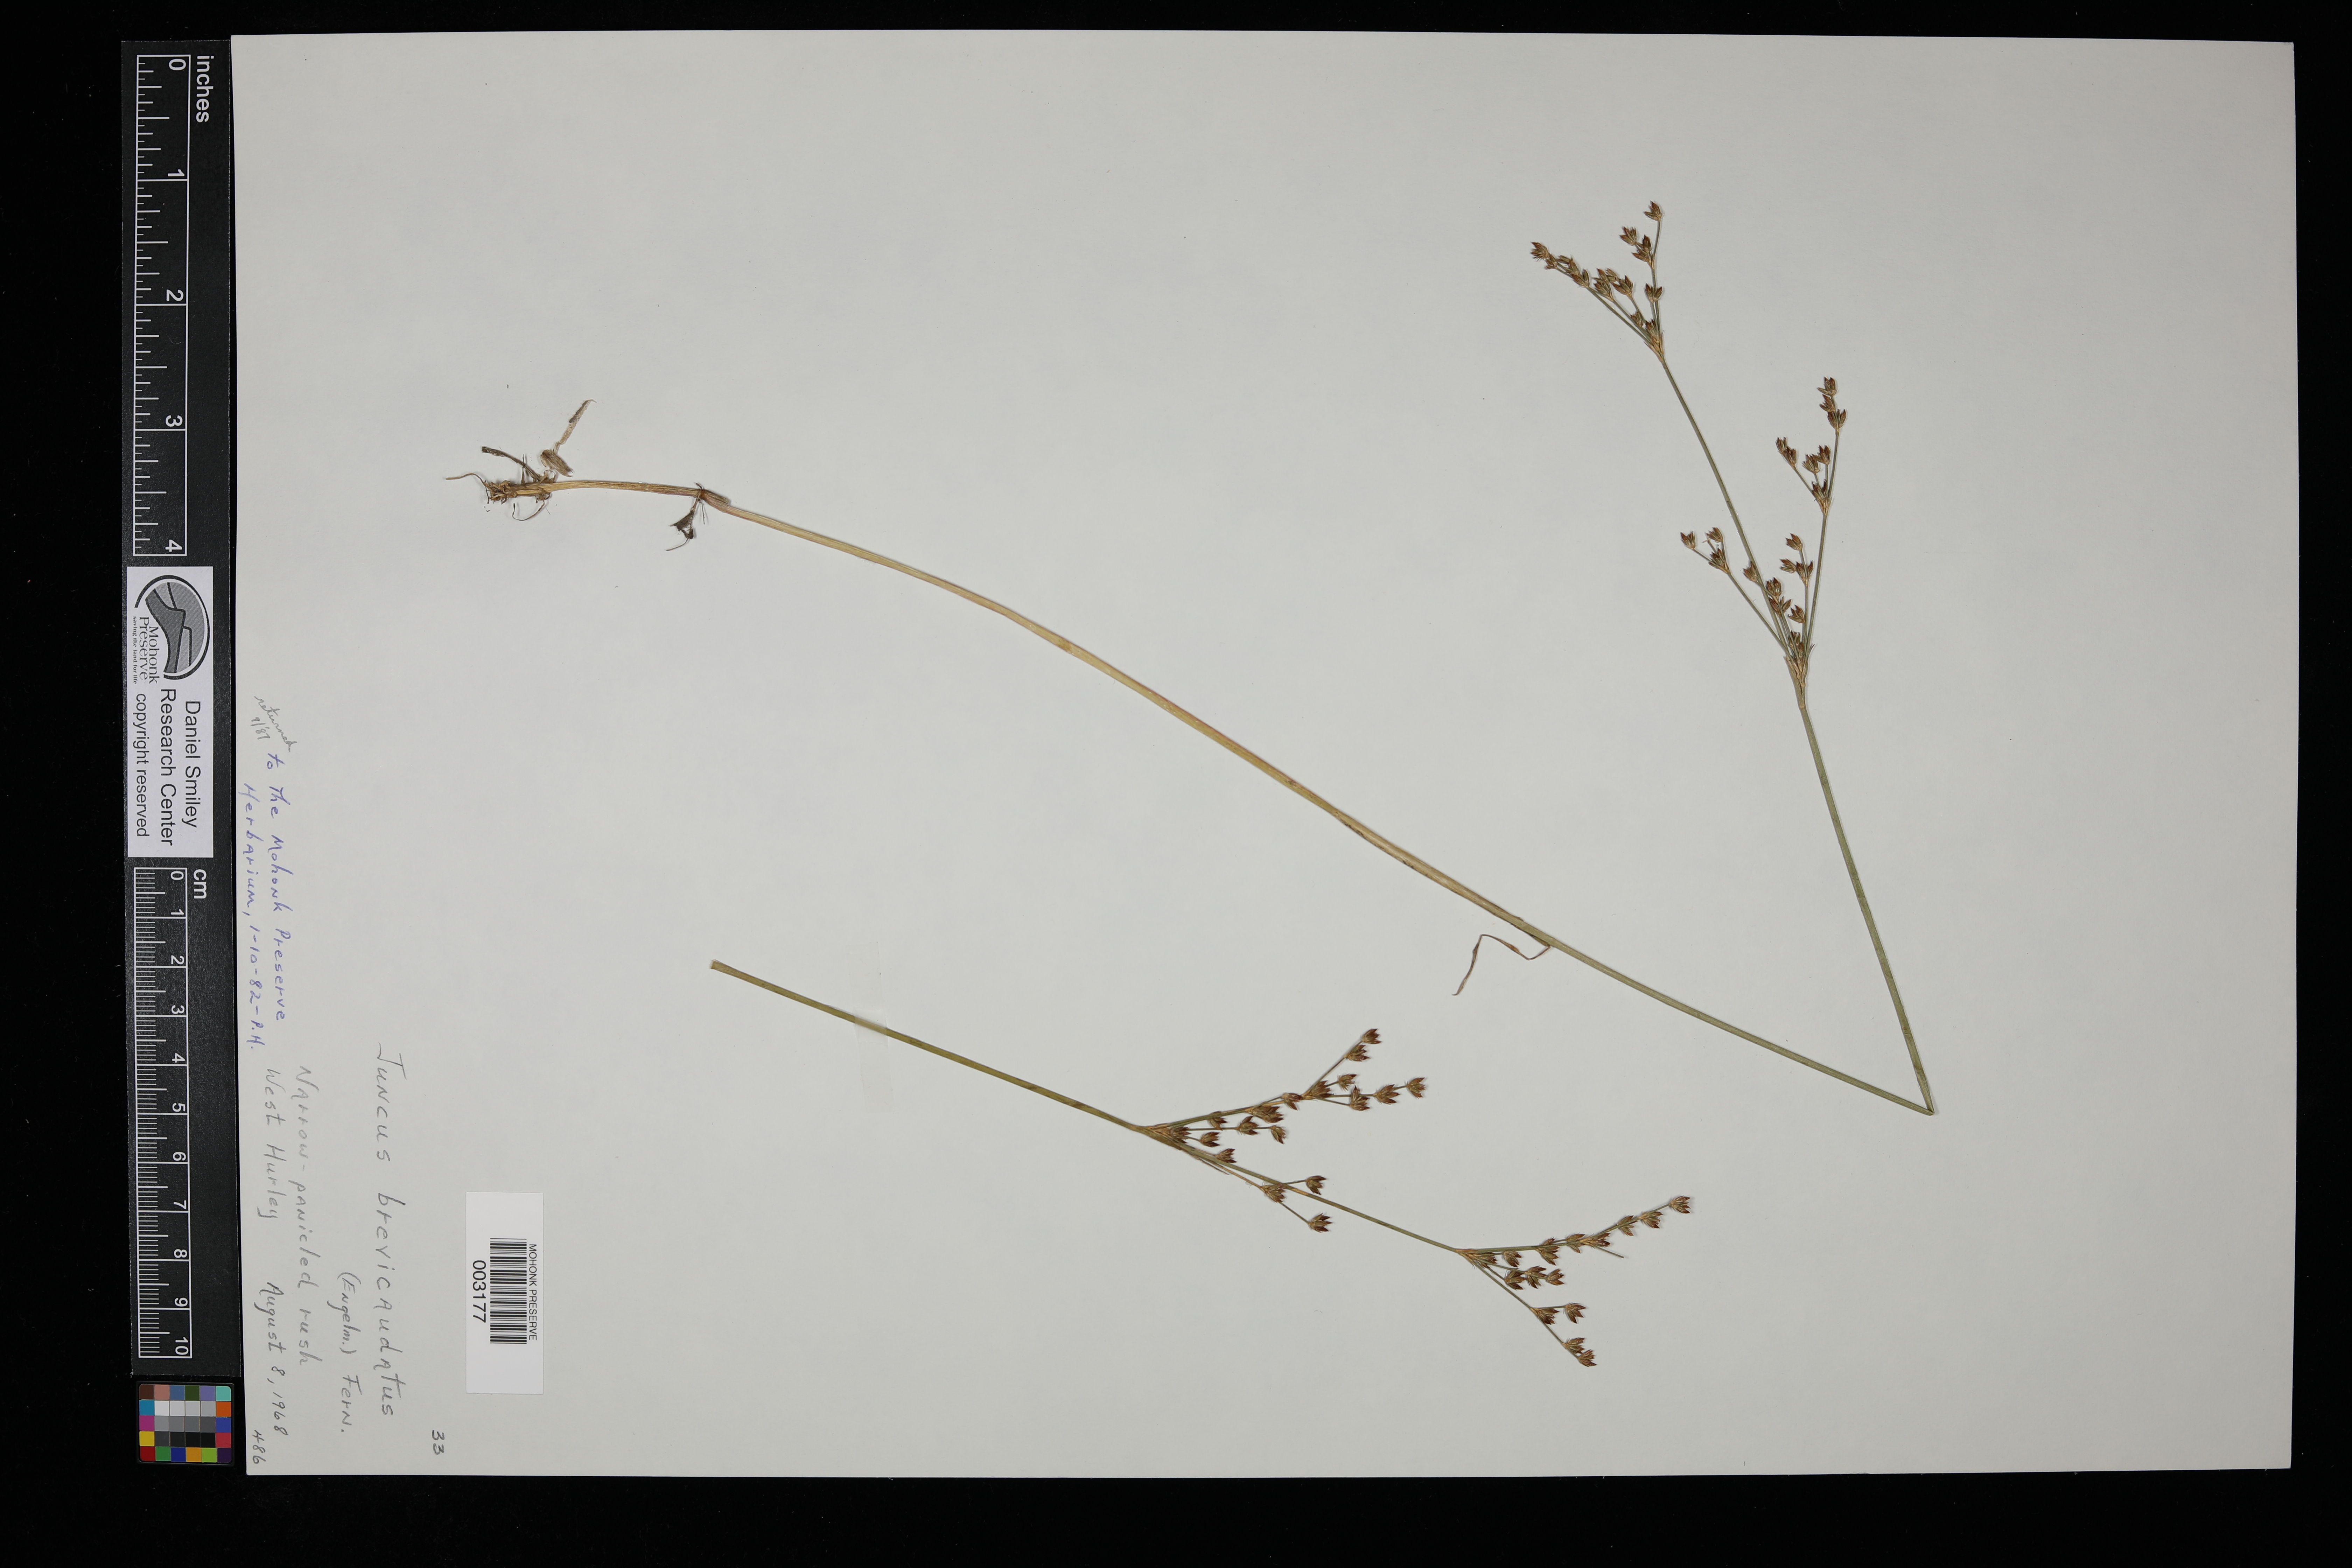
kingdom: Plantae
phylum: Tracheophyta
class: Liliopsida
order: Poales
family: Juncaceae
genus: Juncus
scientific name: Juncus brevicaudatus
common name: Narrow-panicle rush
